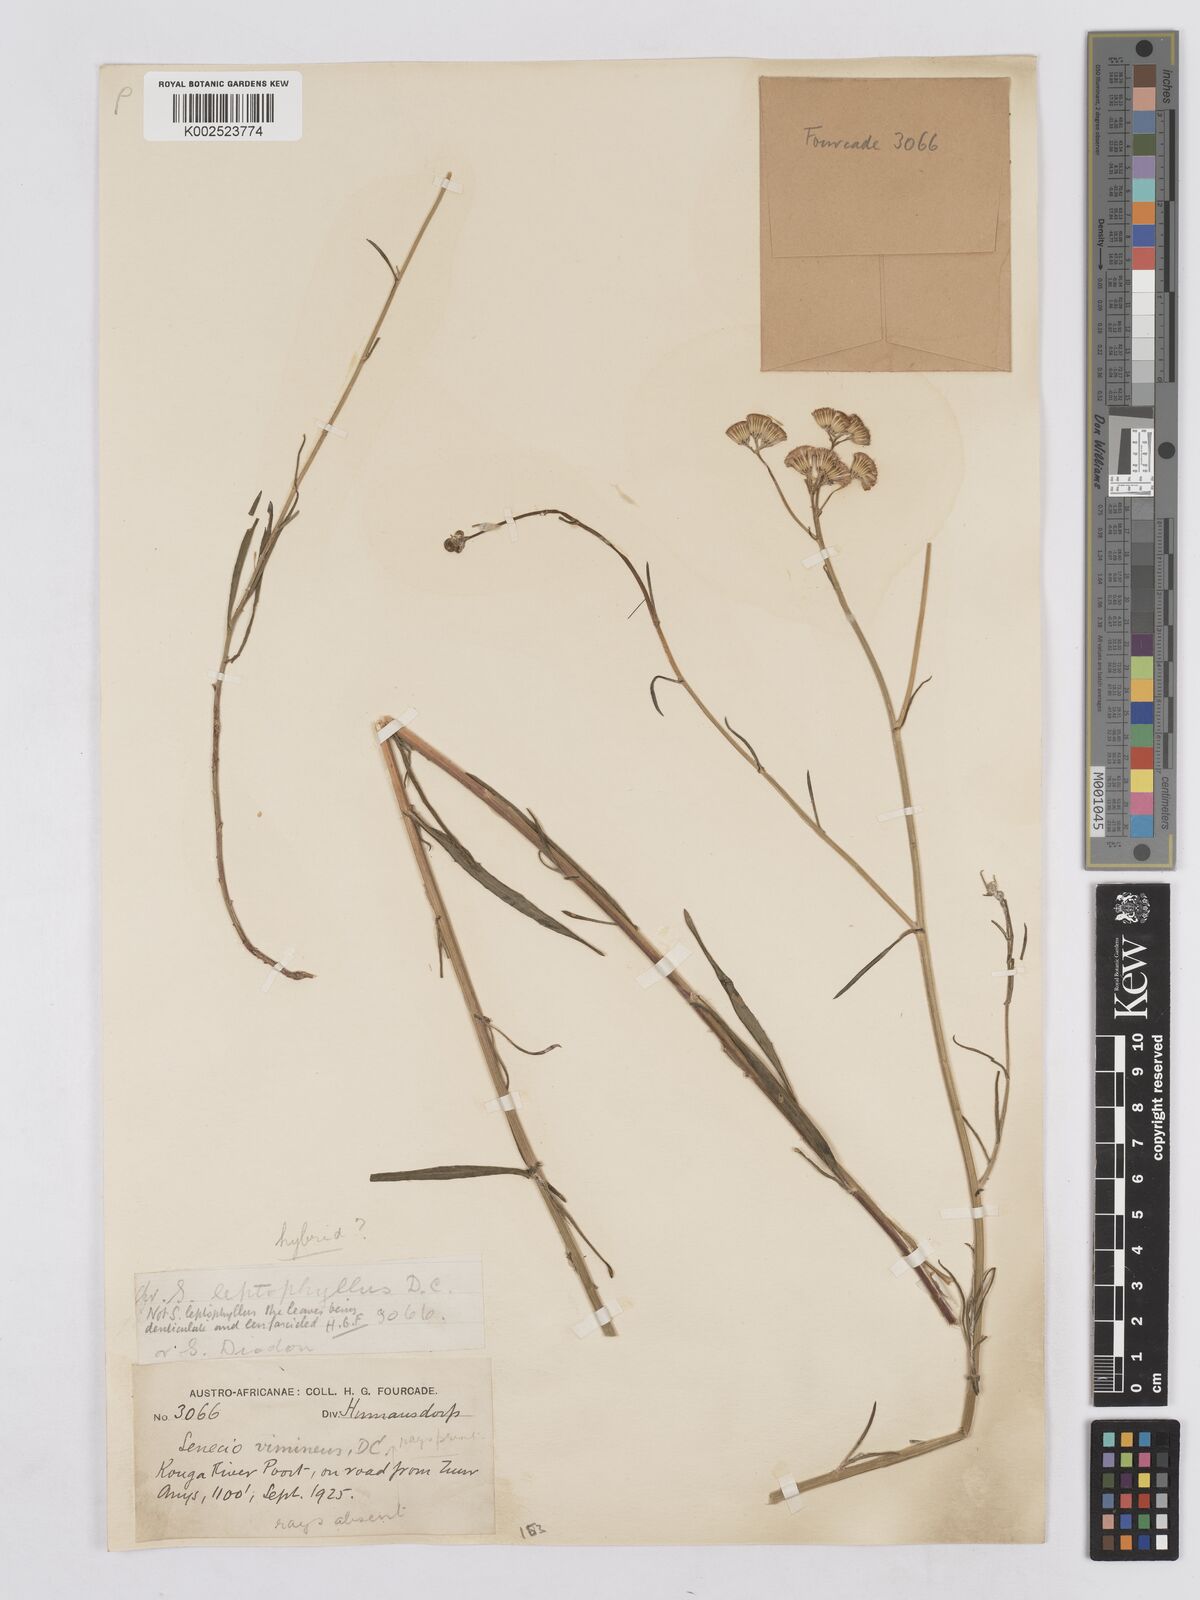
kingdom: Plantae
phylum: Tracheophyta
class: Magnoliopsida
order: Asterales
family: Asteraceae
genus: Senecio
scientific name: Senecio vimineus
